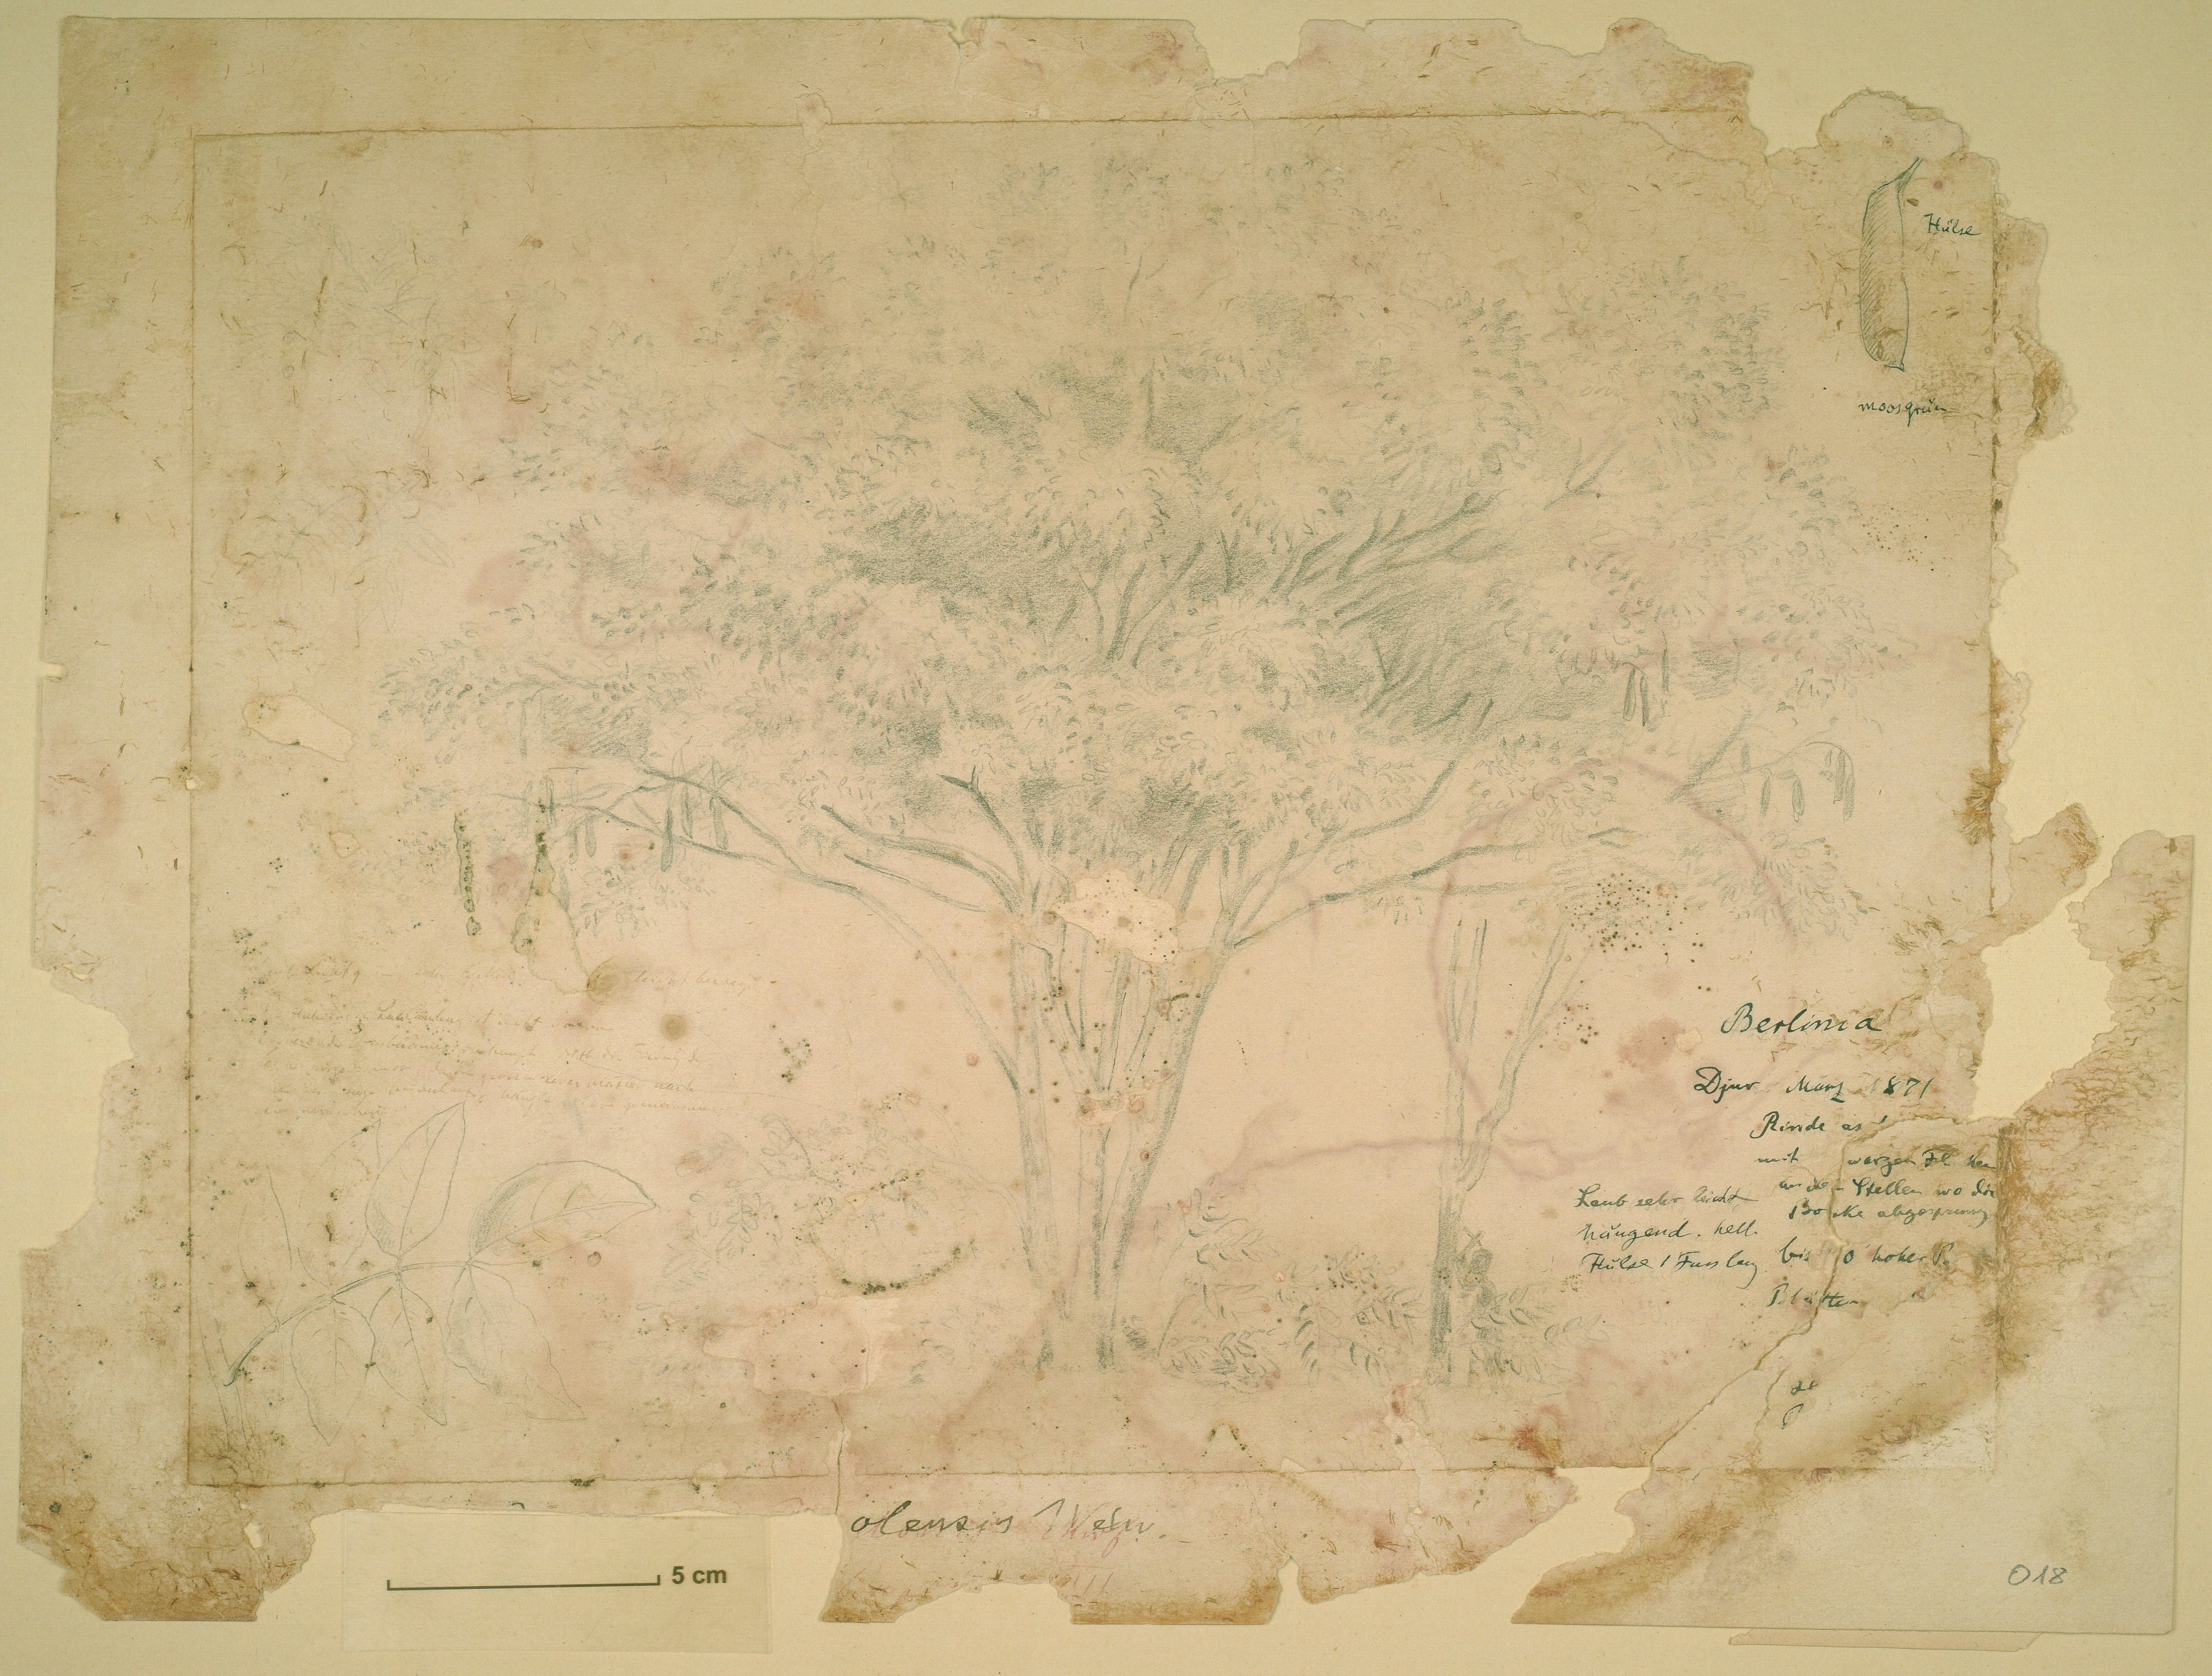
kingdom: Plantae
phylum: Tracheophyta
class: Magnoliopsida
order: Fabales
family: Fabaceae
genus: Isoberlinia
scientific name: Isoberlinia angolensis
